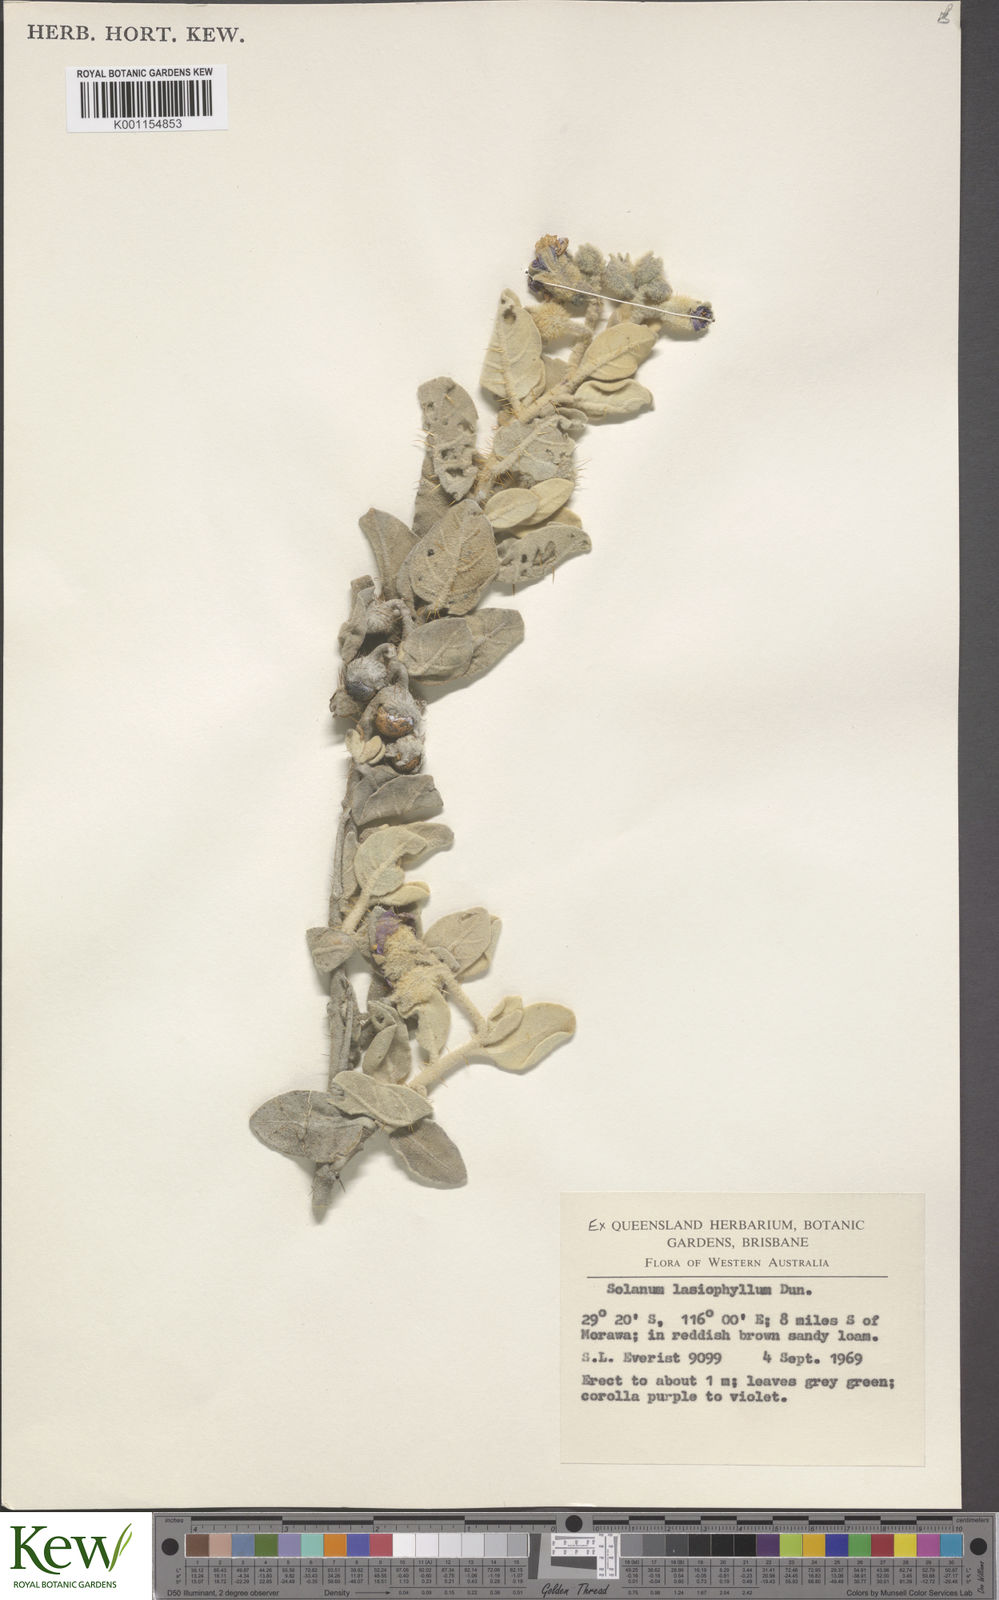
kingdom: Plantae
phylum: Tracheophyta
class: Magnoliopsida
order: Solanales
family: Solanaceae
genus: Solanum
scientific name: Solanum lasiophyllum
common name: Flannelbush
